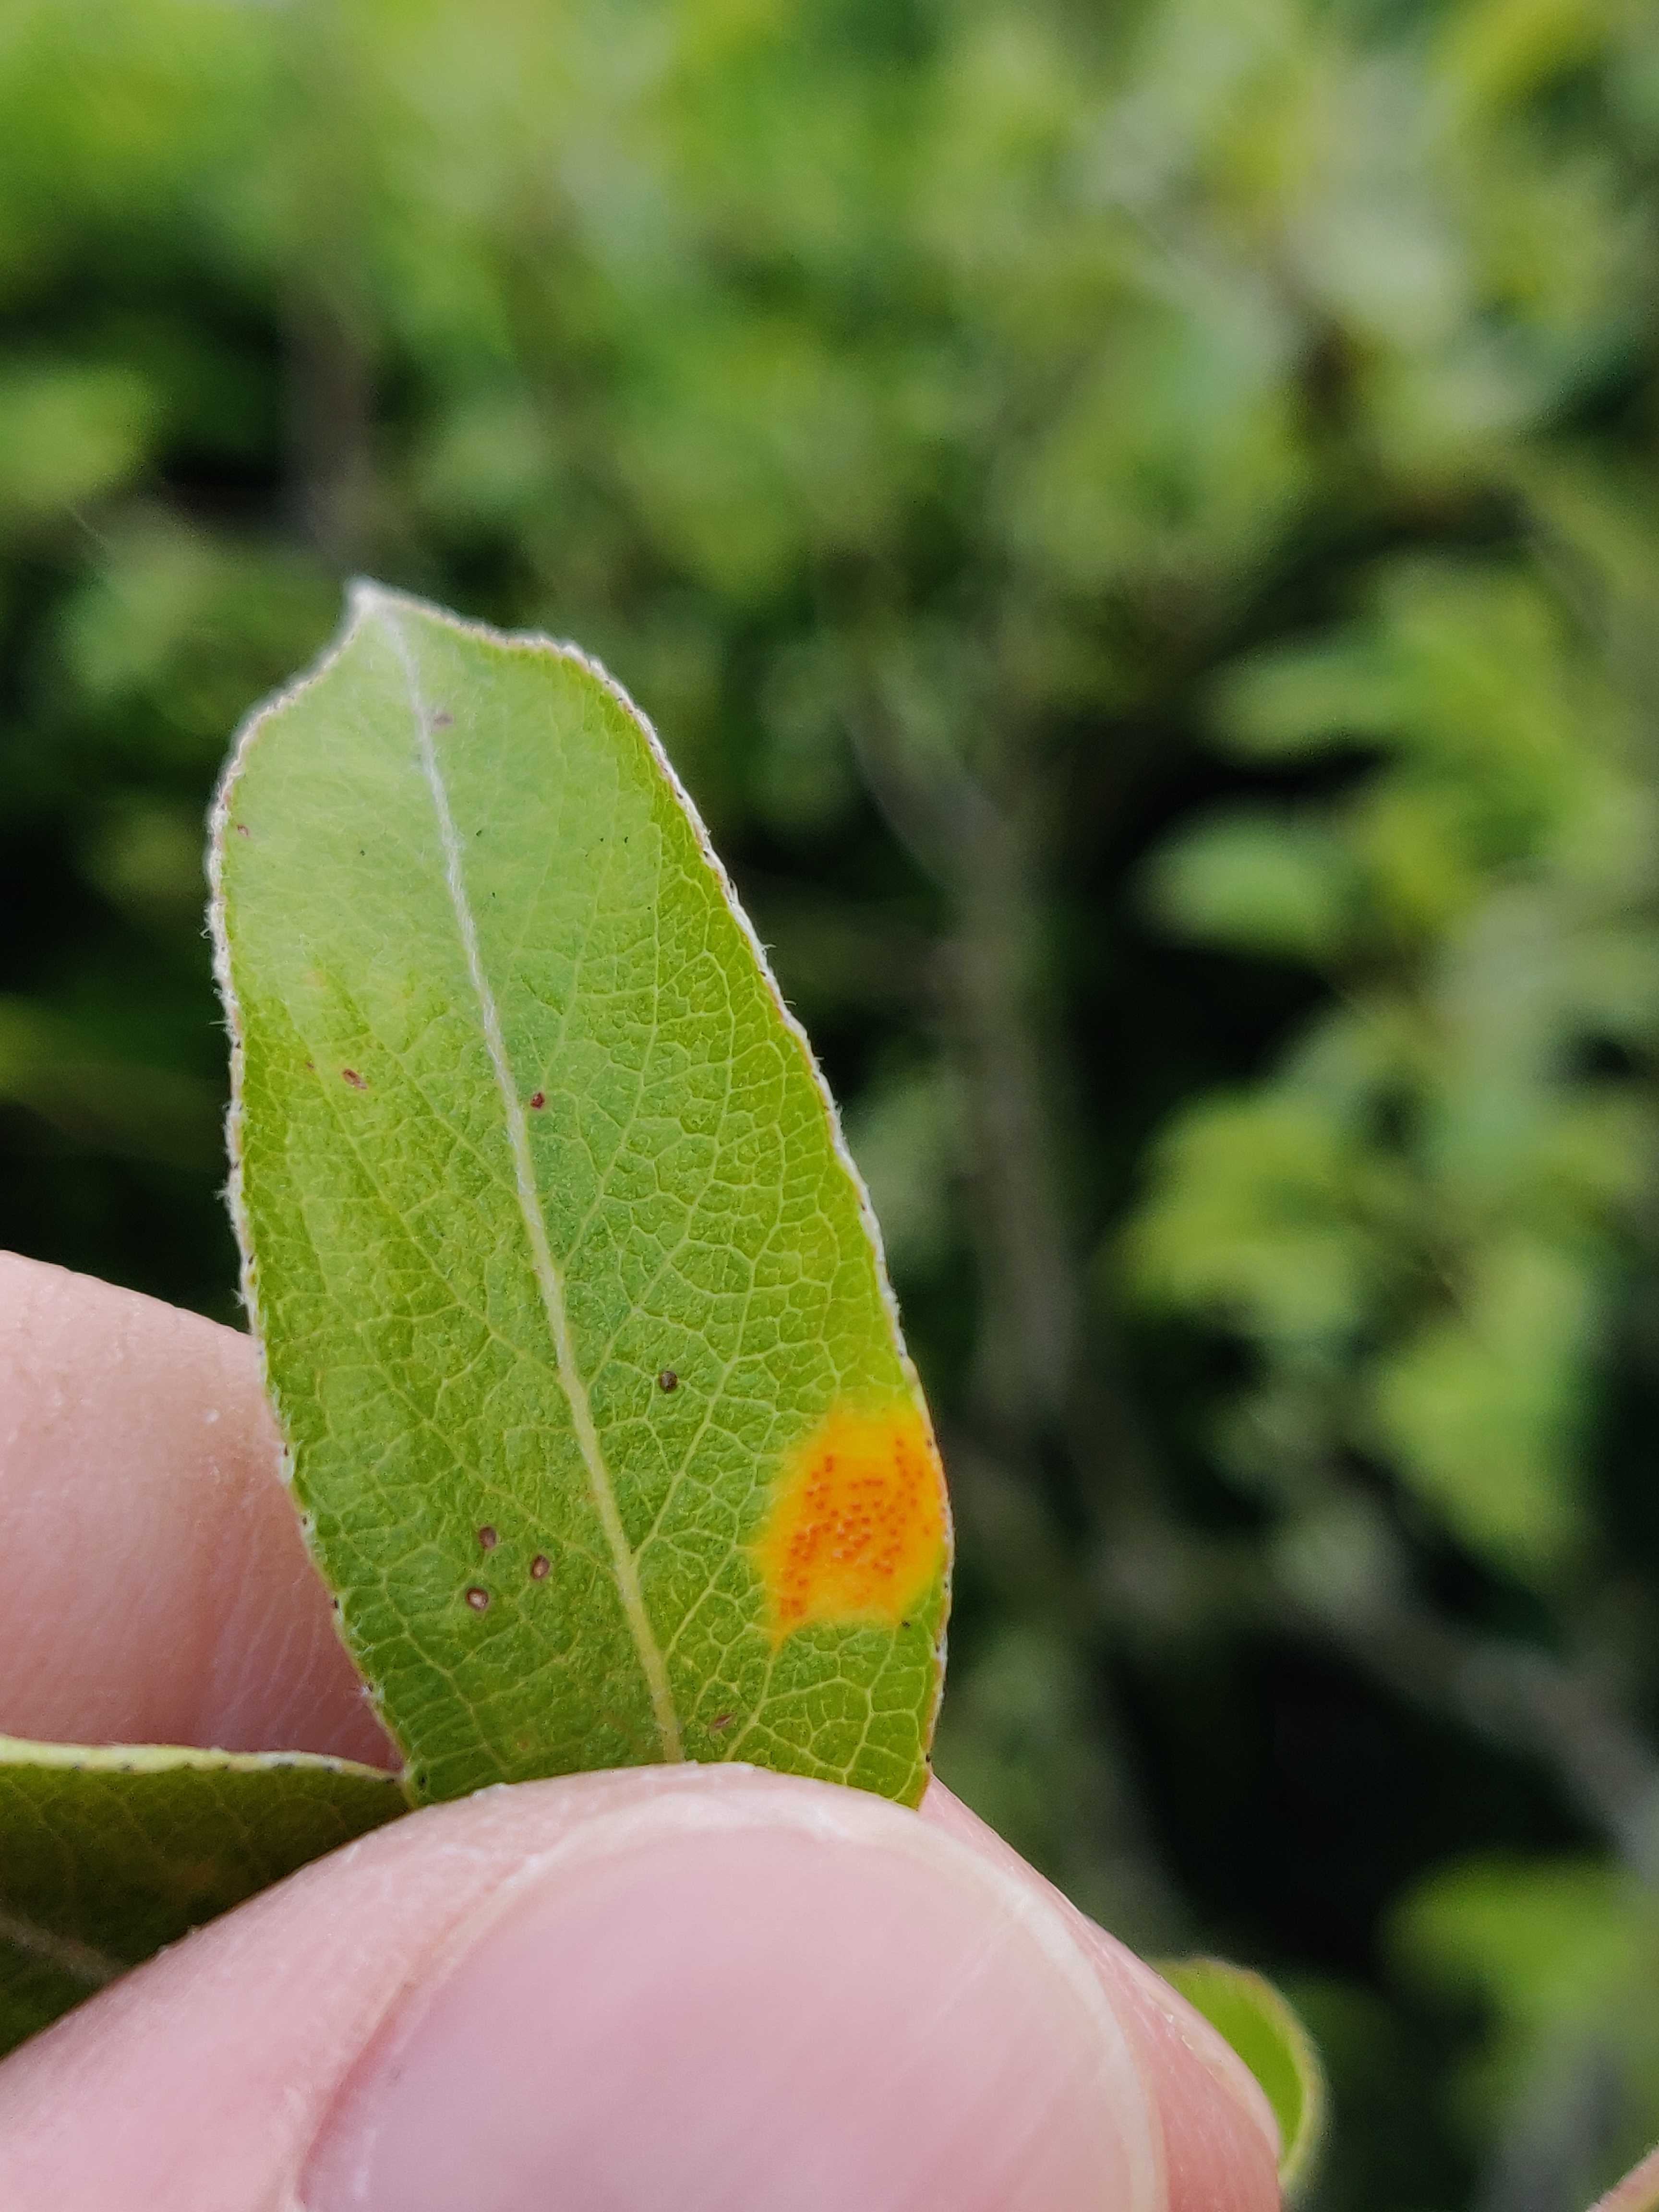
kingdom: Fungi
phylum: Basidiomycota
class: Pucciniomycetes
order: Pucciniales
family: Gymnosporangiaceae
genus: Gymnosporangium
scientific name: Gymnosporangium sabinae
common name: pæregitter-bævrerust
